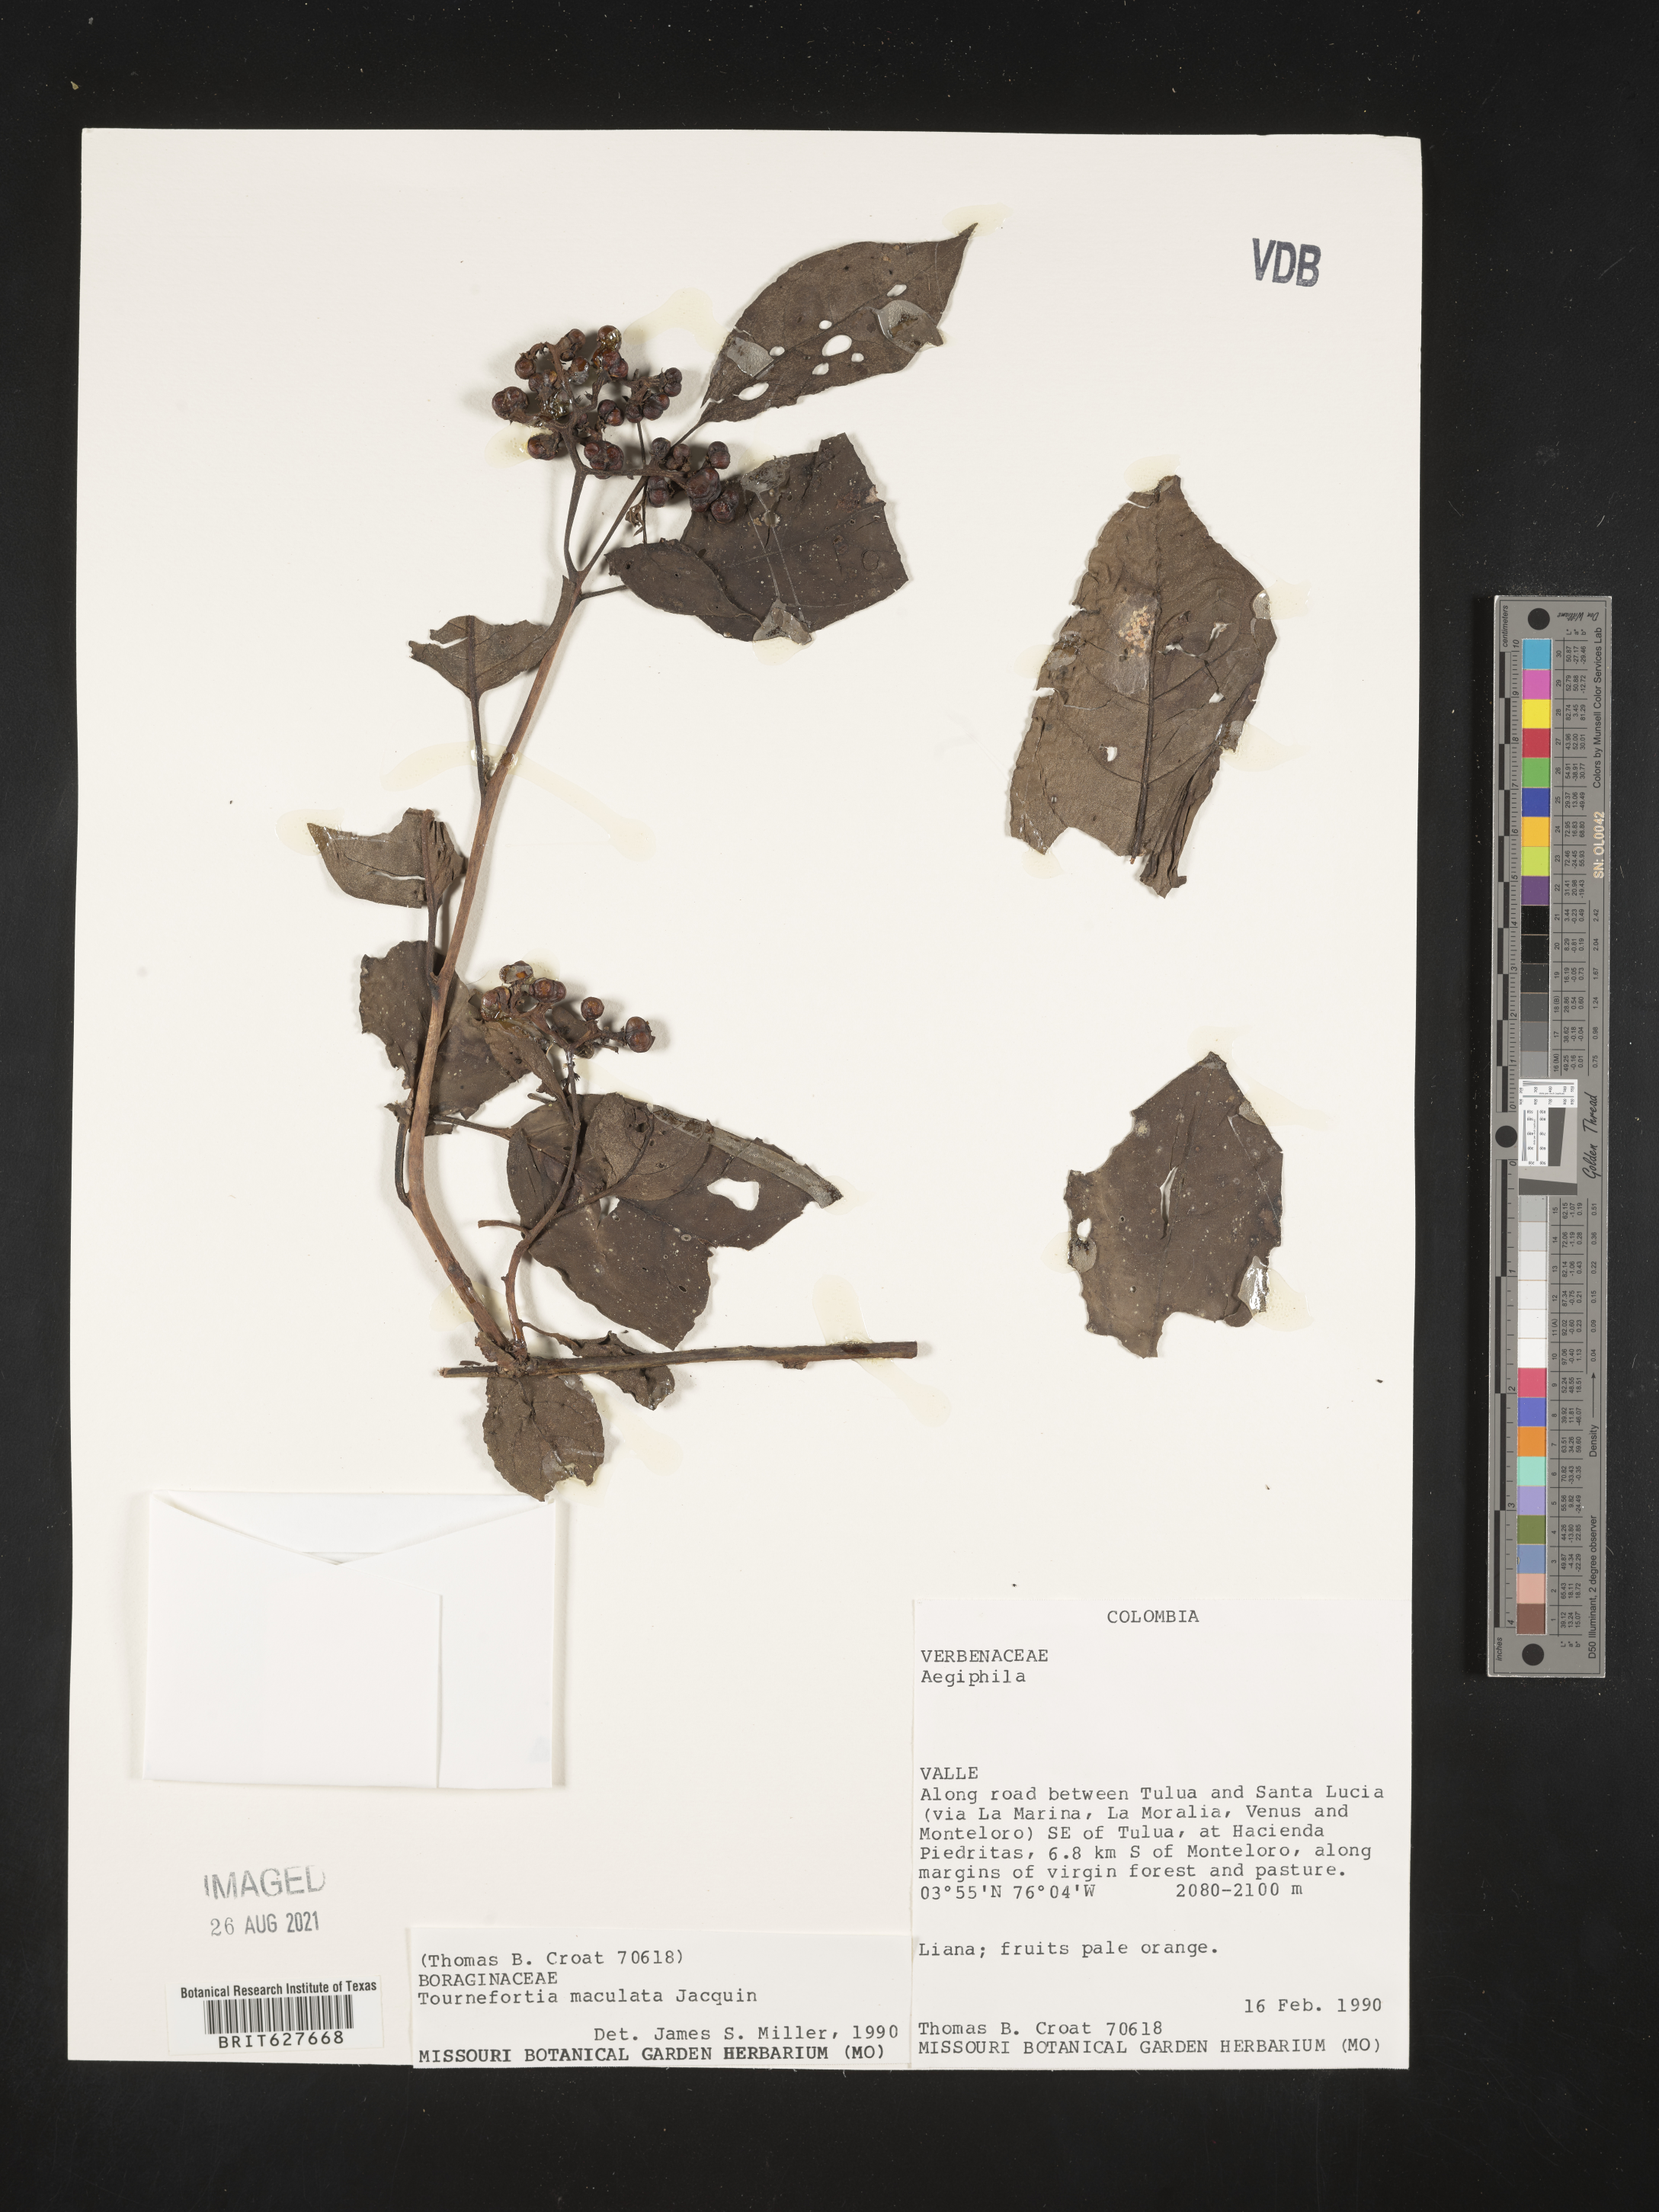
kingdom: Plantae
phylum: Tracheophyta
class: Magnoliopsida
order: Boraginales
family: Heliotropiaceae
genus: Myriopus
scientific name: Myriopus maculatus
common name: Laurel-leaf soldierbush
